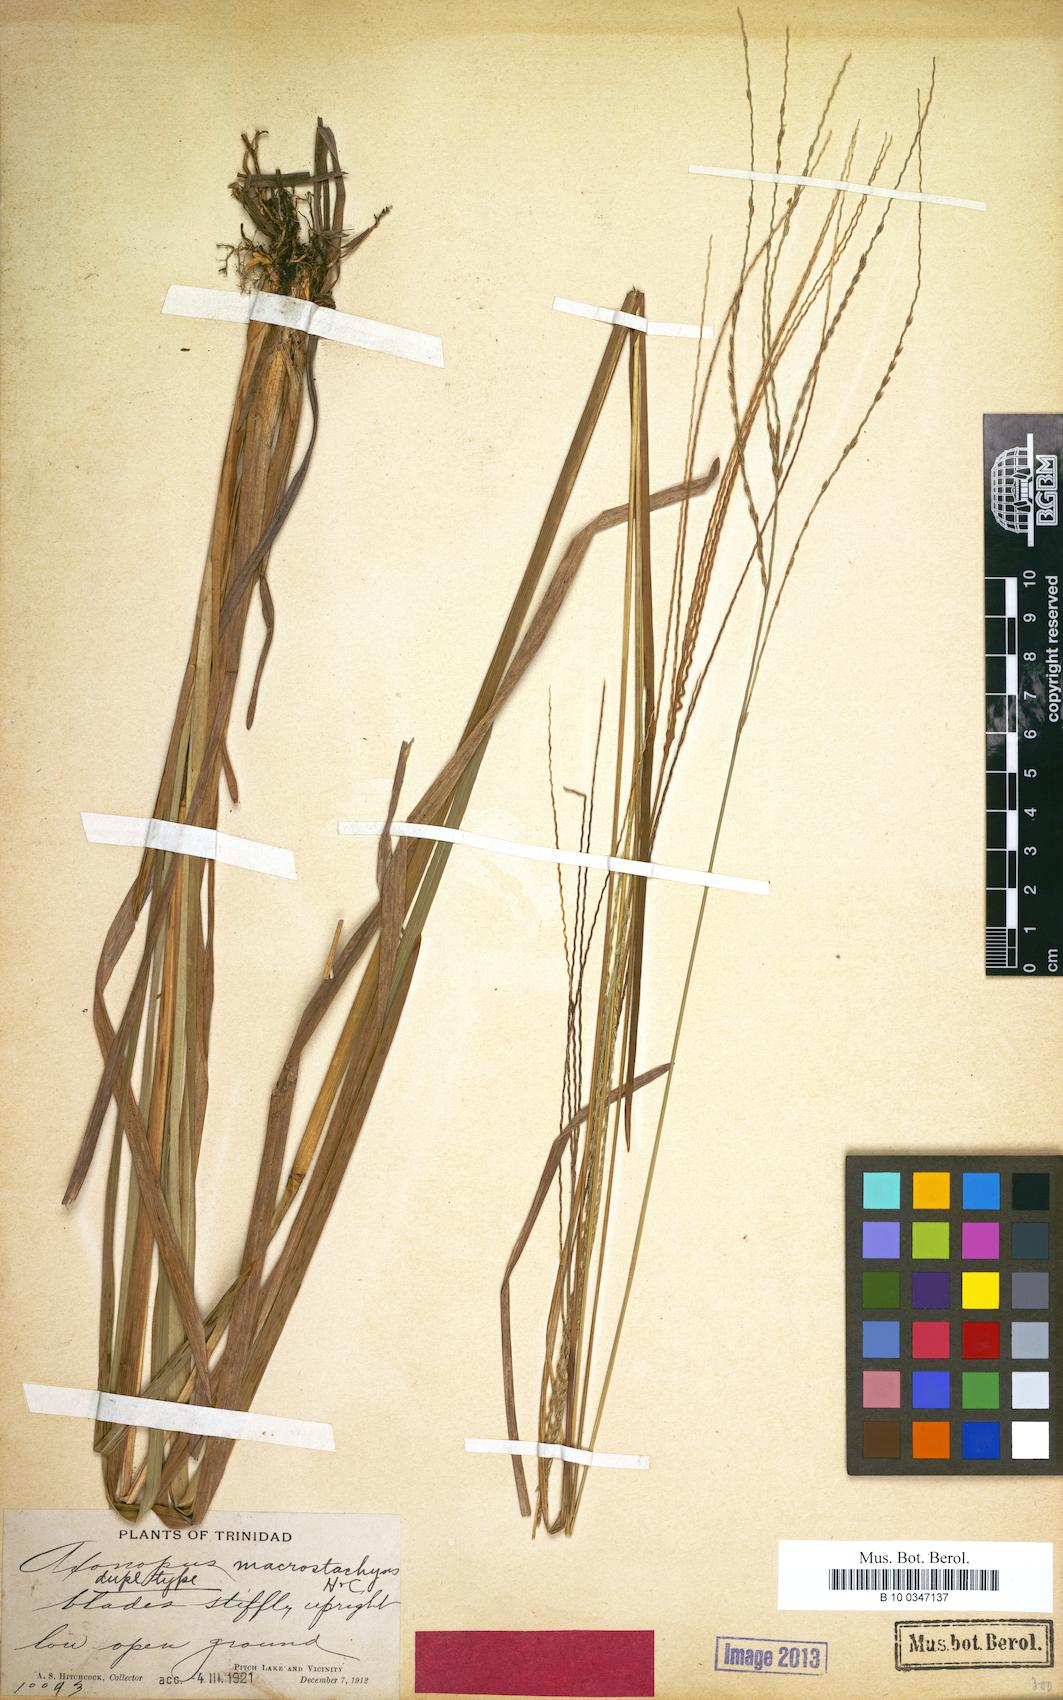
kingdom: Plantae
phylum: Tracheophyta
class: Liliopsida
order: Poales
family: Poaceae
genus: Axonopus
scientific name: Axonopus leptostachyus
